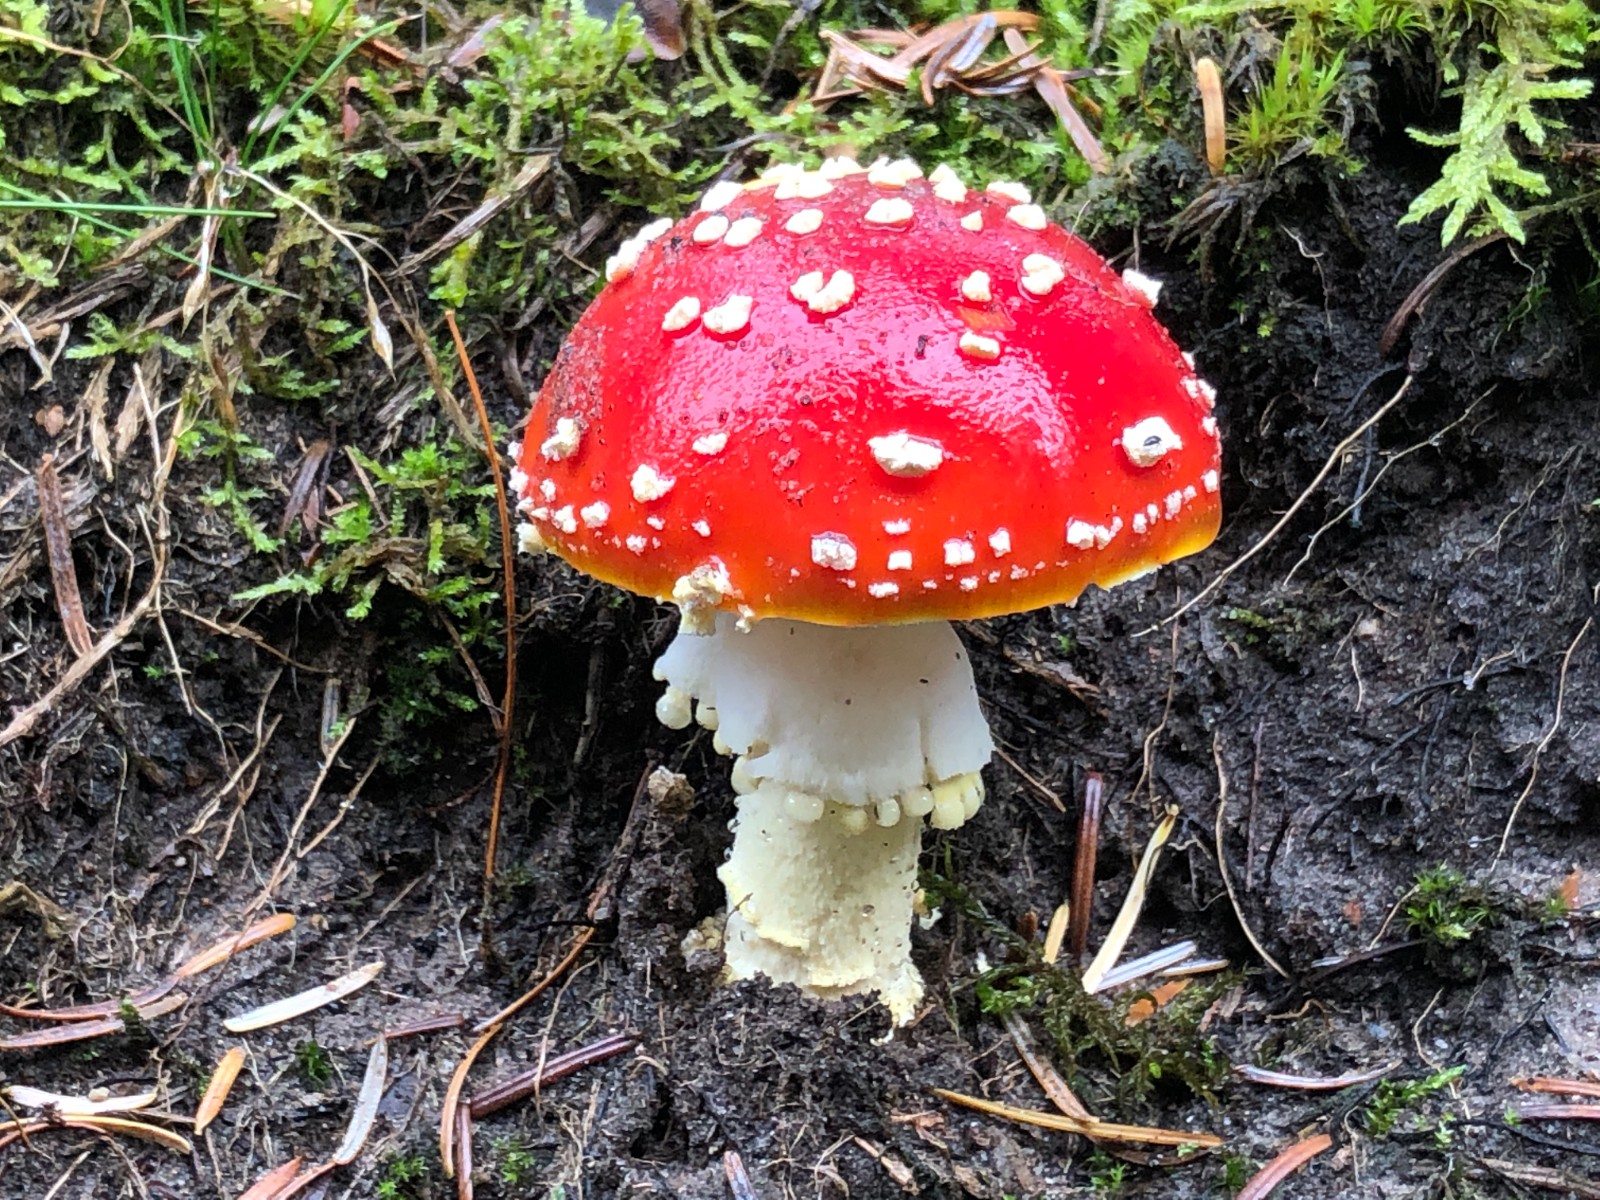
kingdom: Fungi
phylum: Basidiomycota
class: Agaricomycetes
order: Agaricales
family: Amanitaceae
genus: Amanita
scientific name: Amanita muscaria
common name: rød fluesvamp
